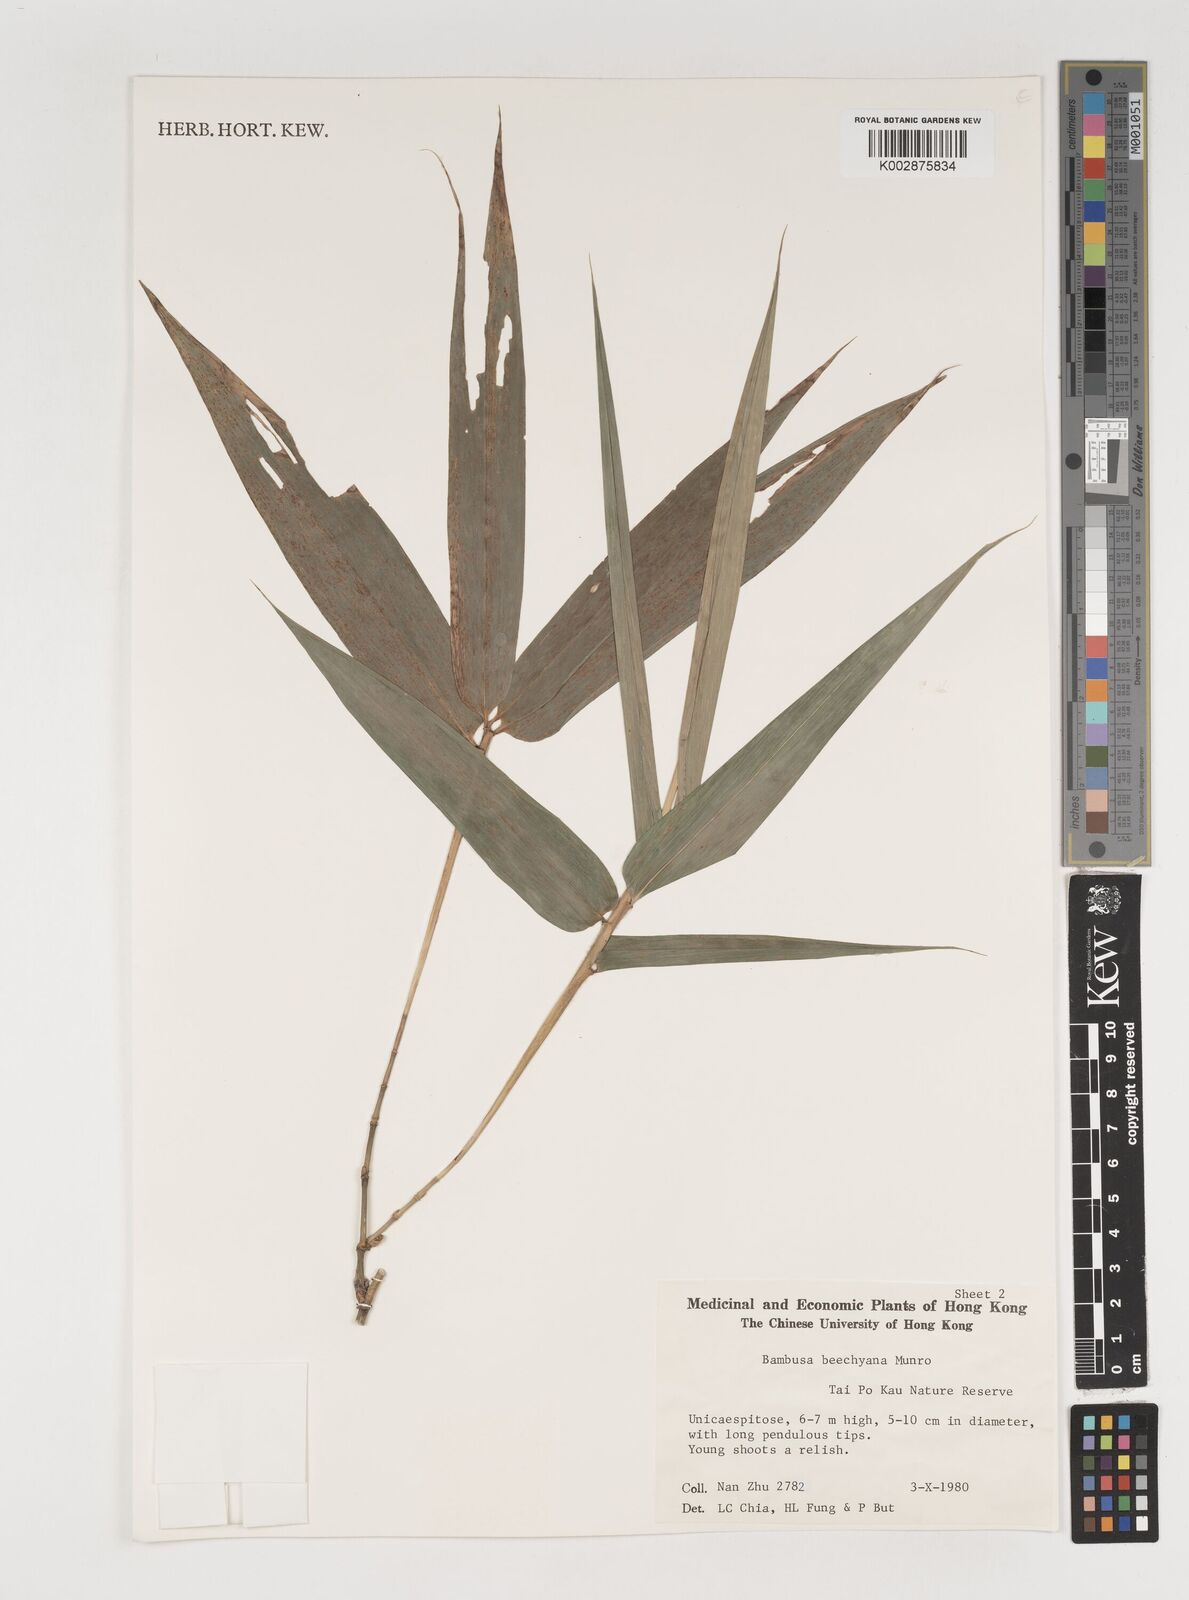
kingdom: Plantae
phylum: Tracheophyta
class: Liliopsida
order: Poales
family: Poaceae
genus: Bambusa
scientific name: Bambusa beecheyana
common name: Beechey's bamboo
